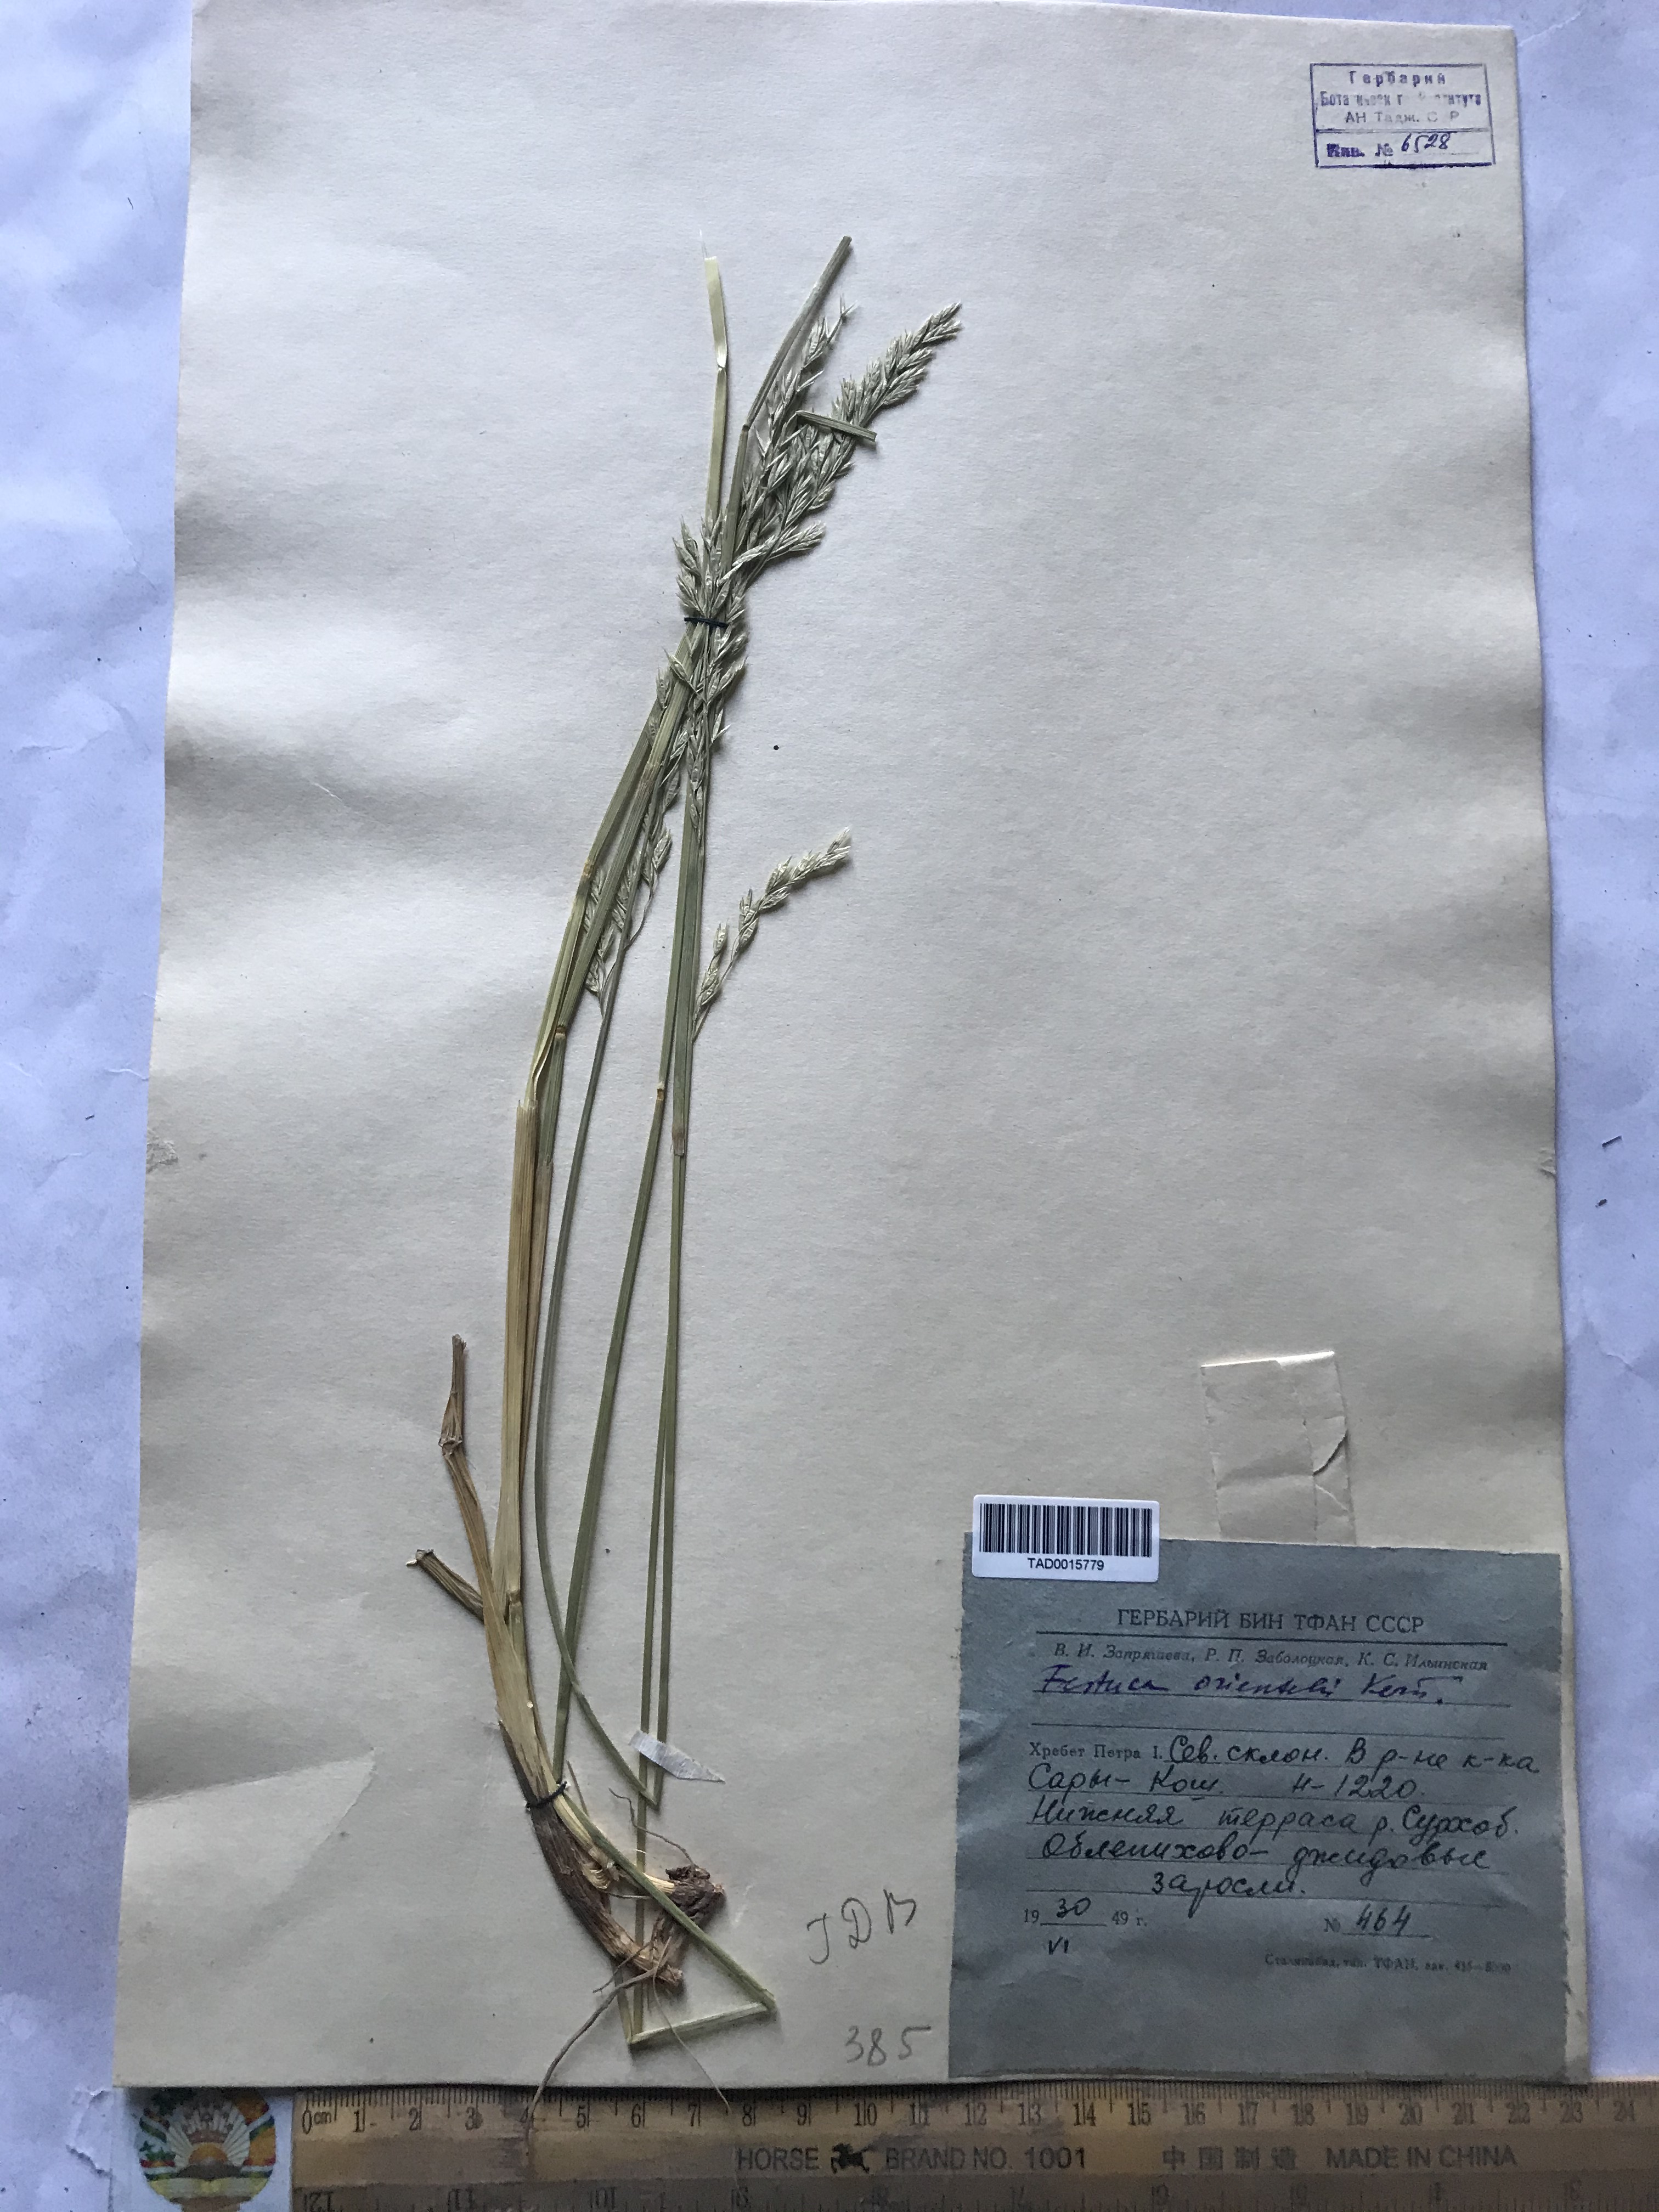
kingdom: Plantae
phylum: Tracheophyta
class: Liliopsida
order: Poales
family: Poaceae
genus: Lolium
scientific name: Lolium arundinaceum
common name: Reed fescue
